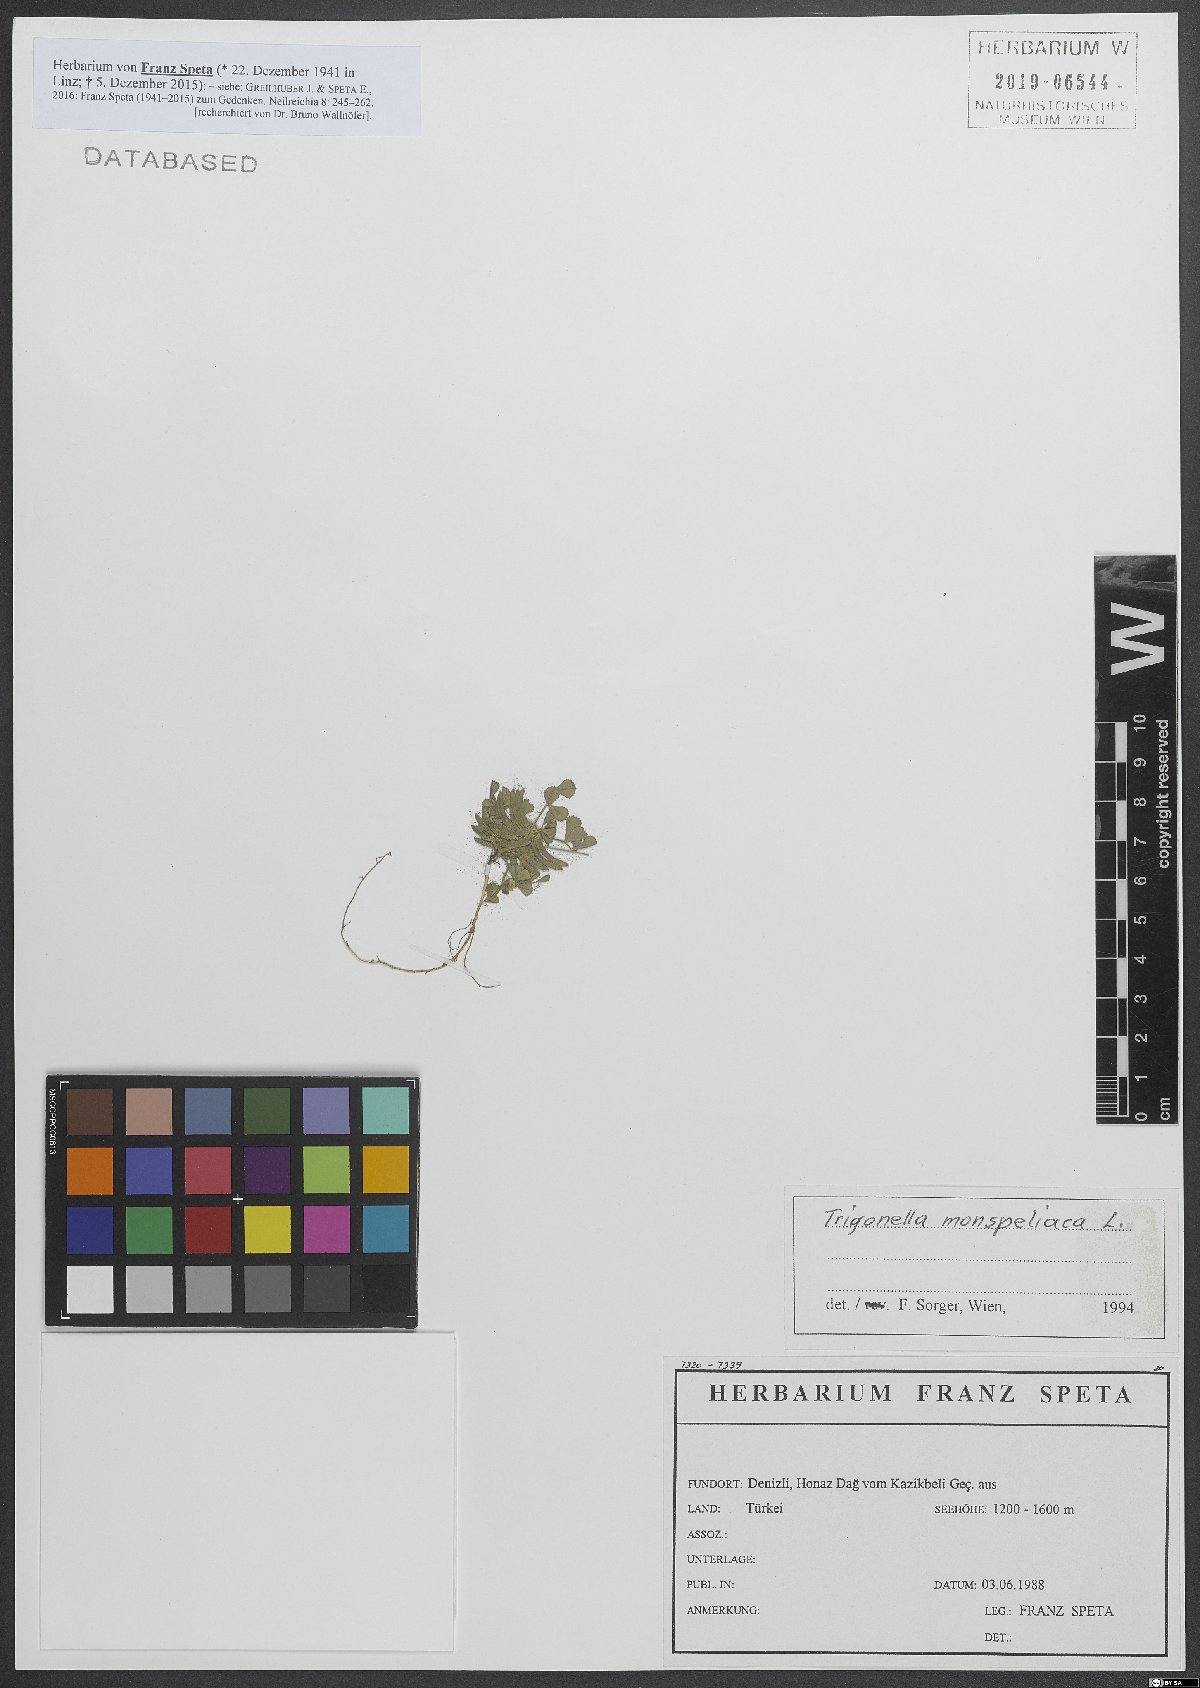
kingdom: Plantae
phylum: Tracheophyta
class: Magnoliopsida
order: Fabales
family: Fabaceae
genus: Medicago
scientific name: Medicago monspeliaca
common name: Hairy medick
